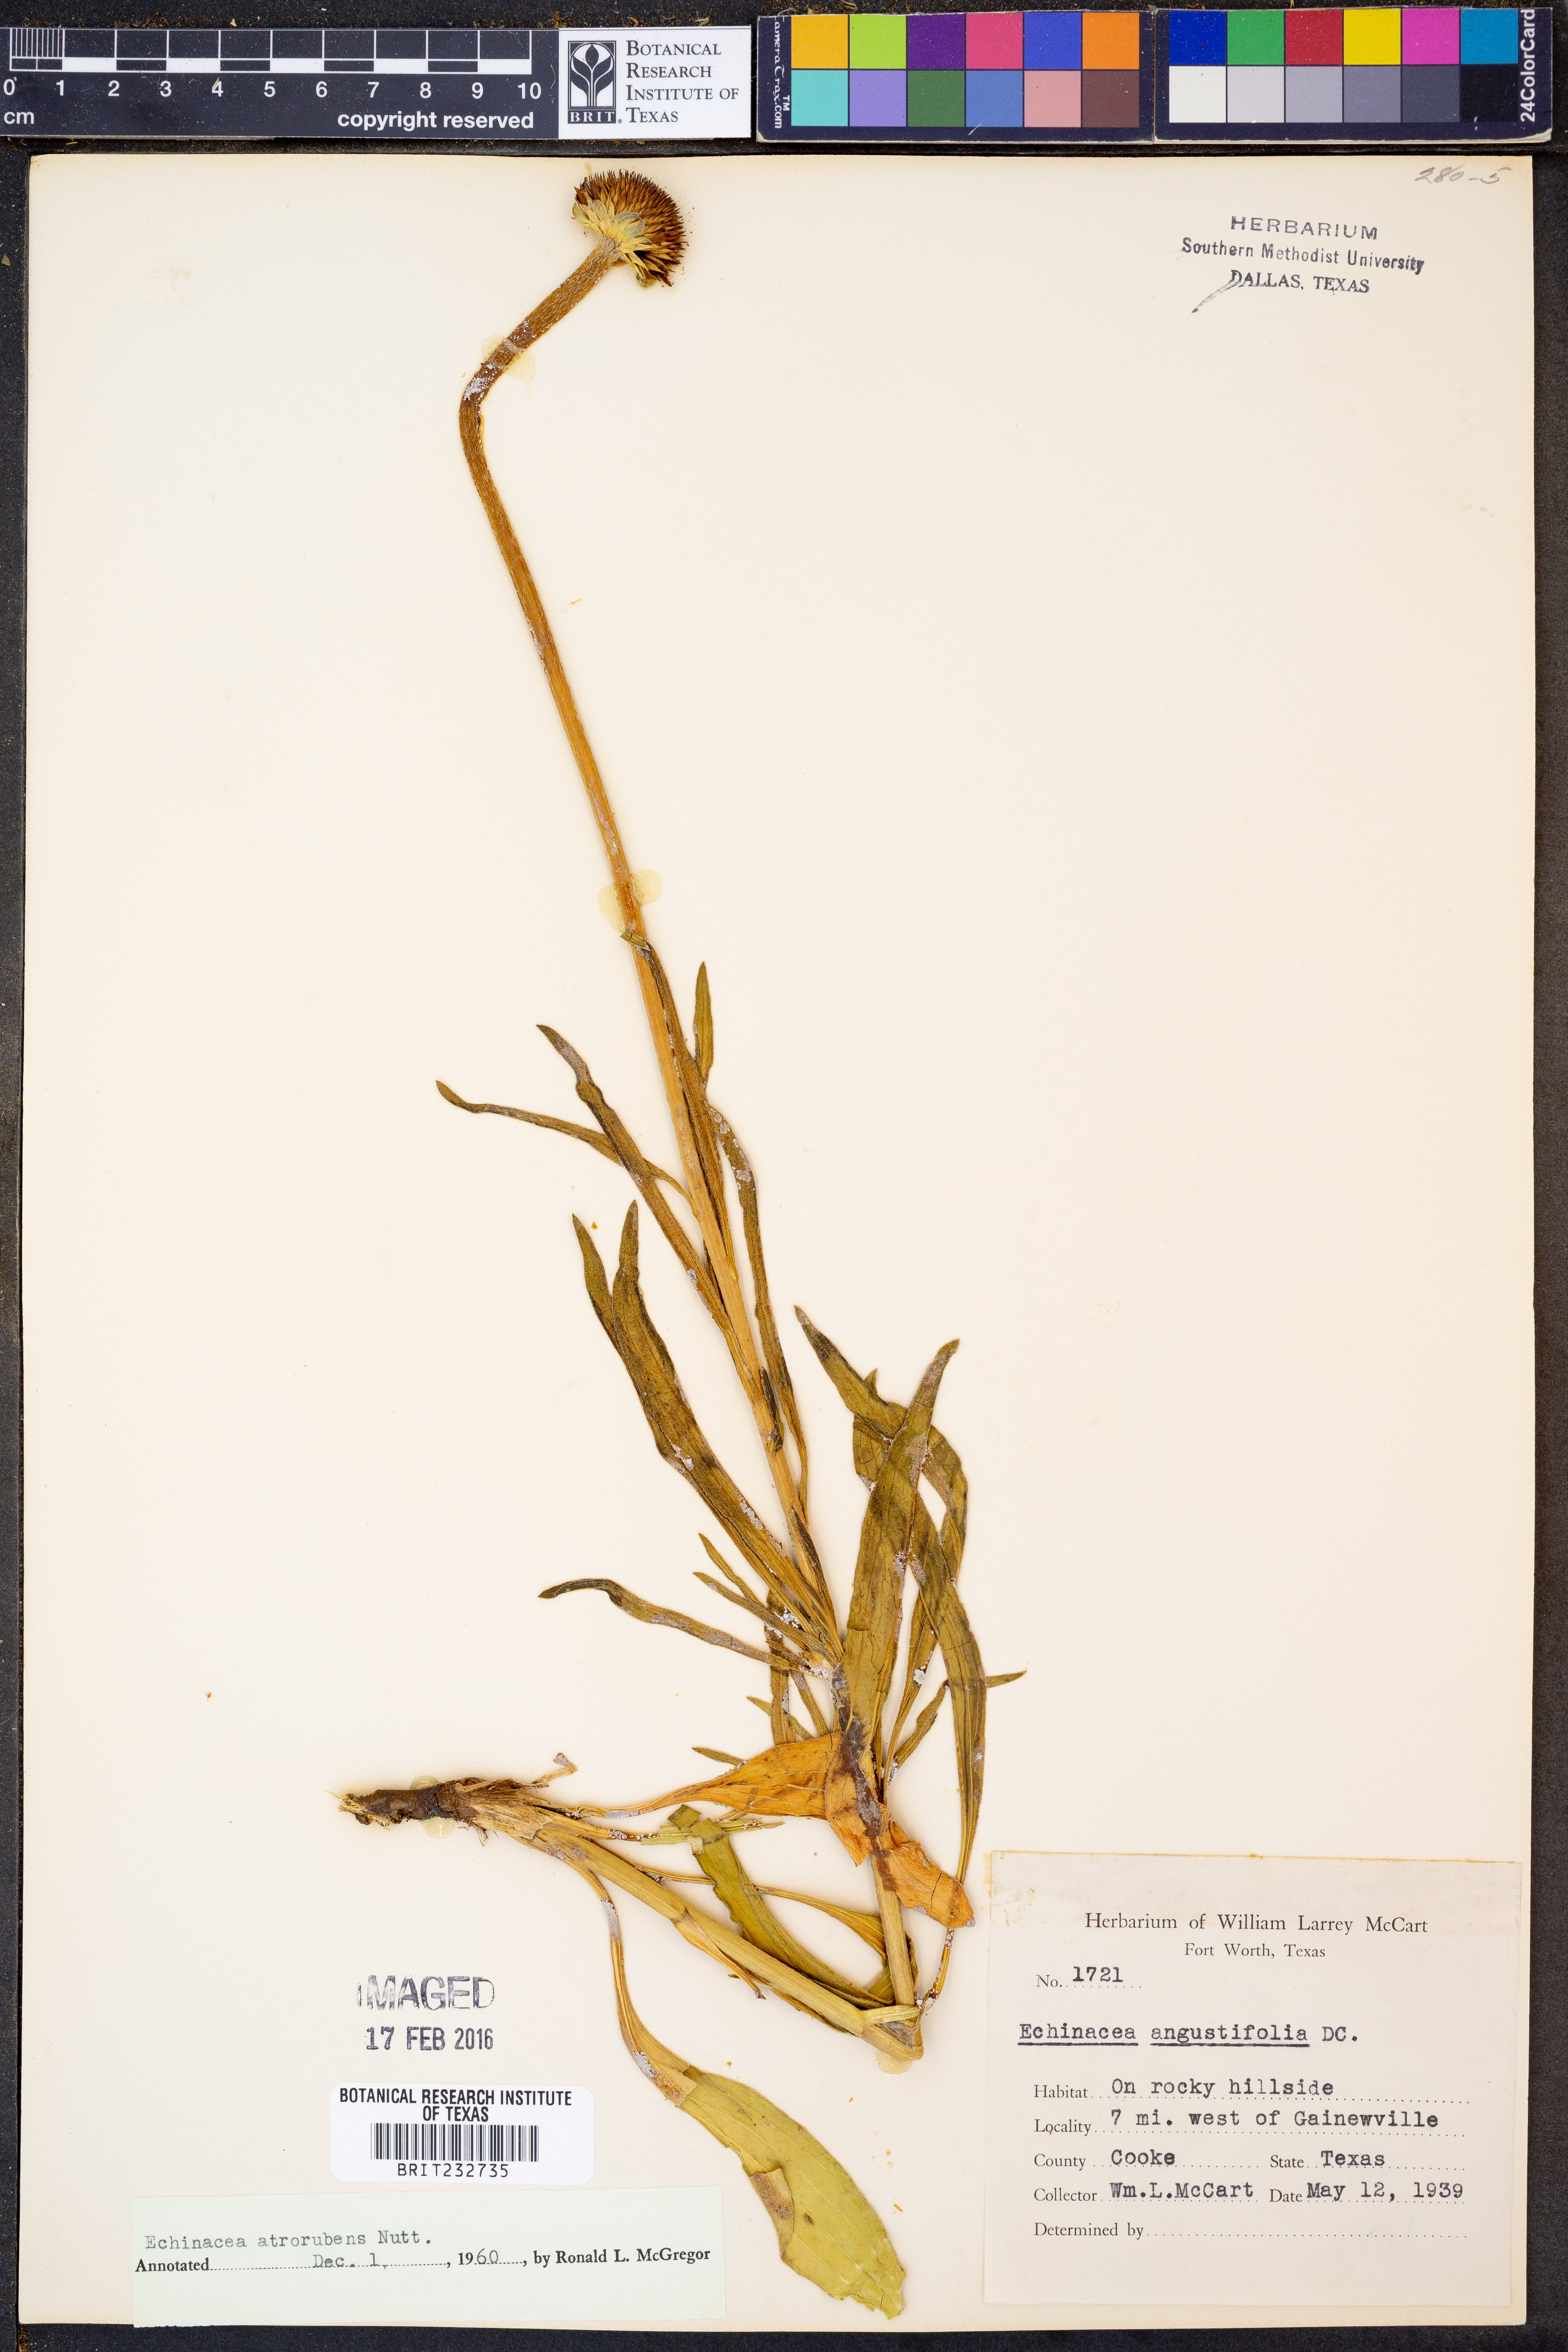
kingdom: Plantae
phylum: Tracheophyta
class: Magnoliopsida
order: Asterales
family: Asteraceae
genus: Echinacea
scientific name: Echinacea atrorubens
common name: Topeka purple-coneflower
